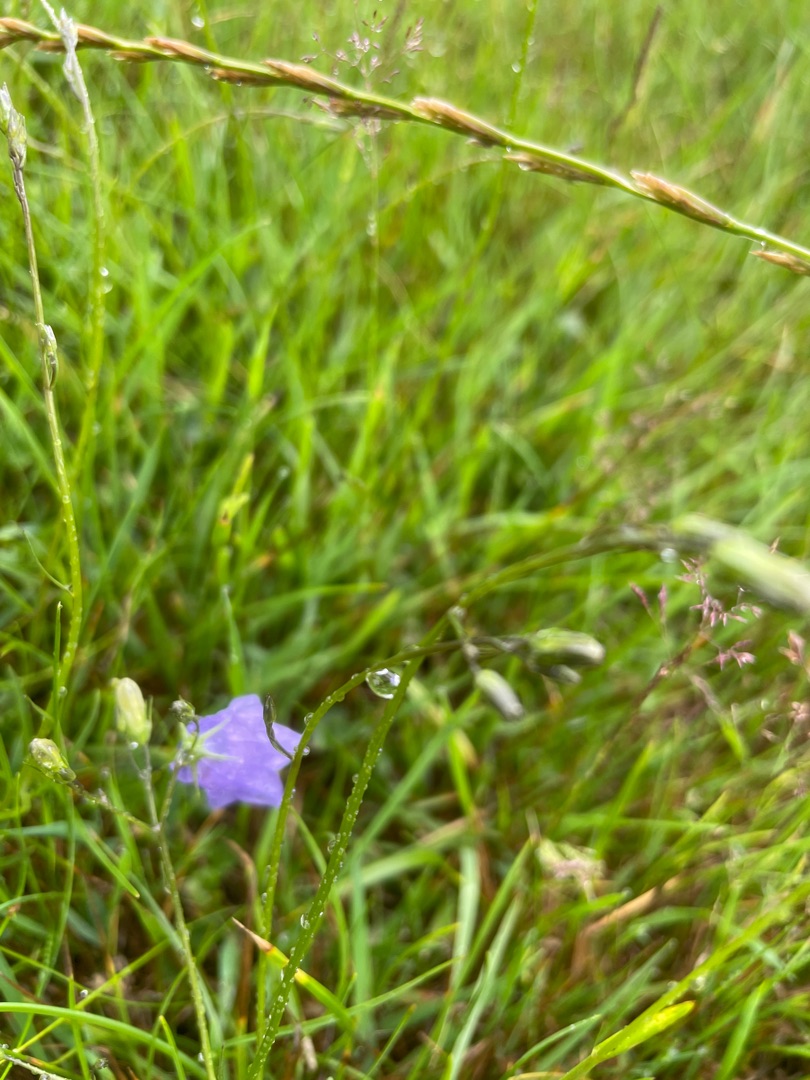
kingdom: Plantae
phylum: Tracheophyta
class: Magnoliopsida
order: Asterales
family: Campanulaceae
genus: Campanula
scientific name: Campanula rotundifolia
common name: Liden klokke
